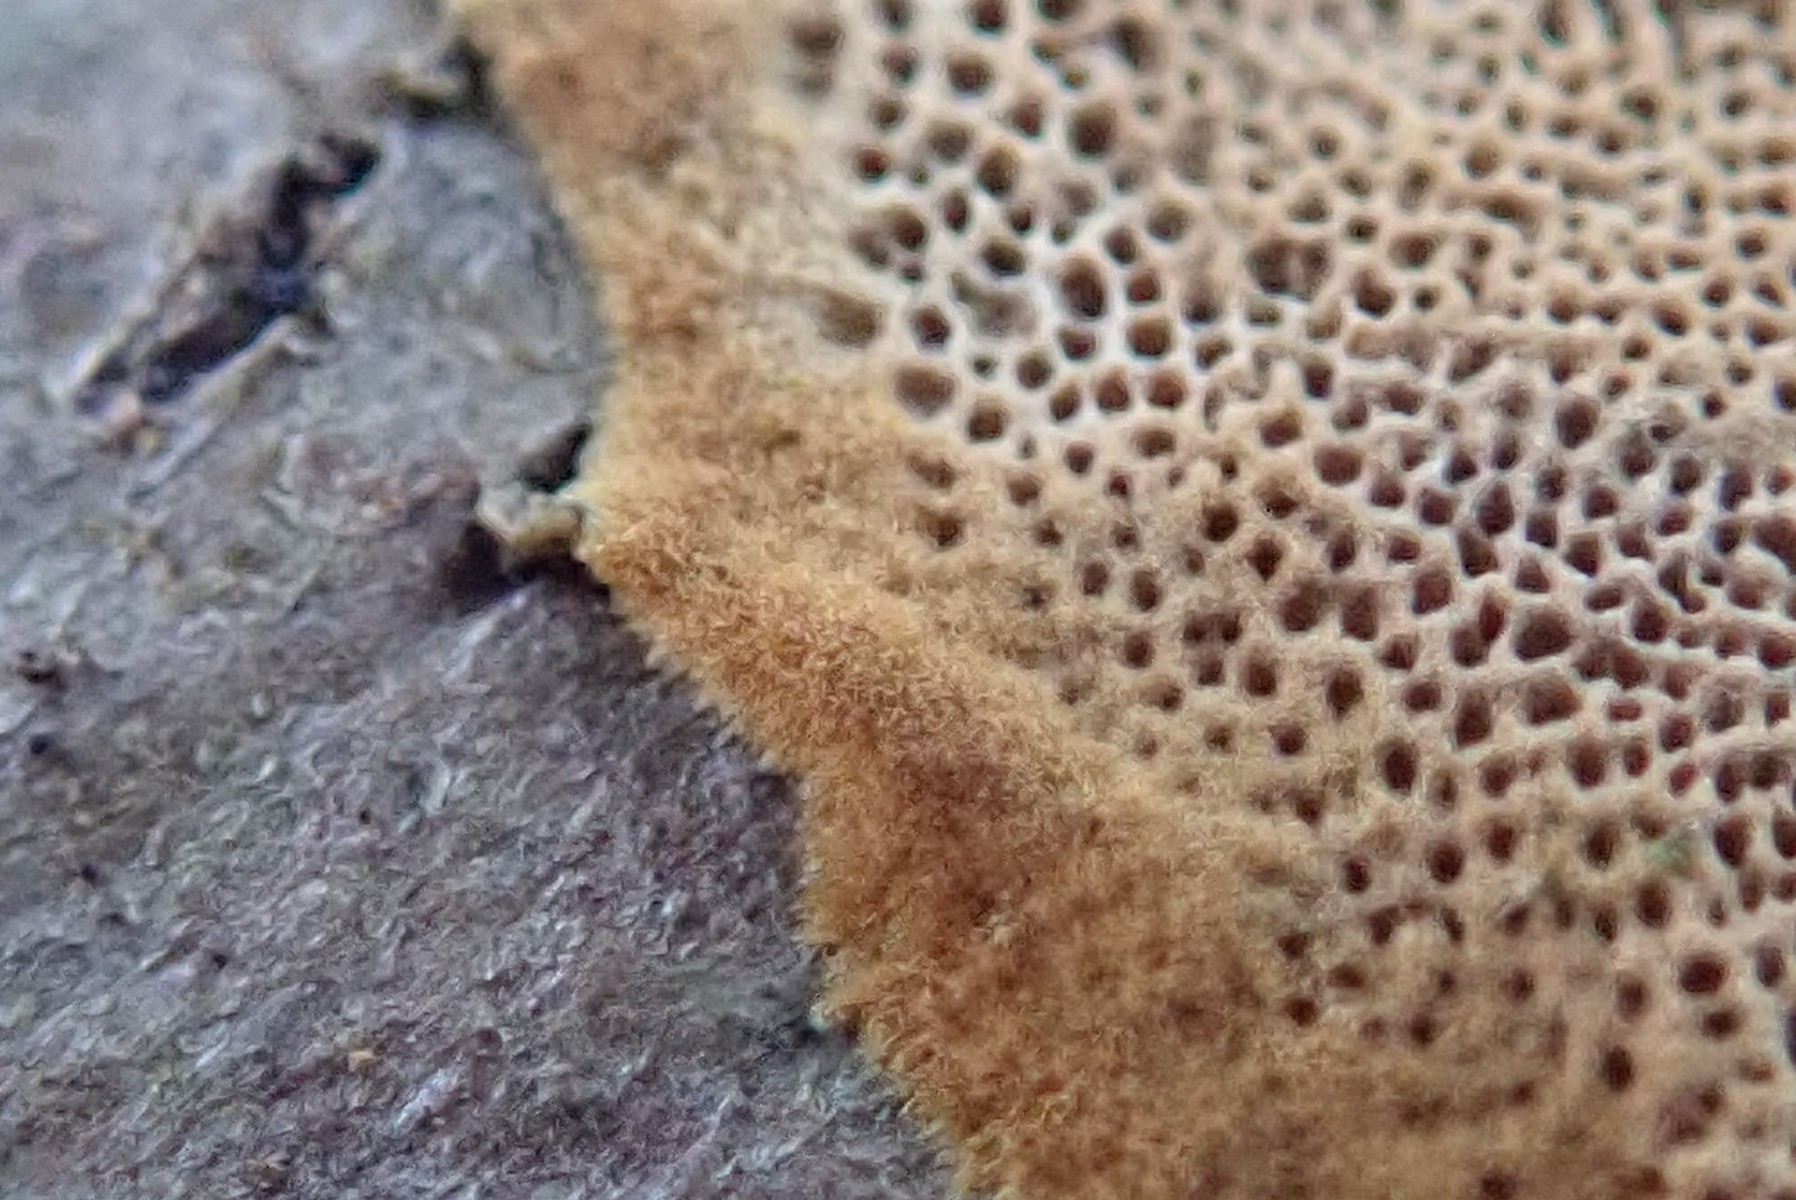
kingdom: Fungi
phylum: Basidiomycota
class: Agaricomycetes
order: Hymenochaetales
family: Hymenochaetaceae
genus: Fuscoporia
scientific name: Fuscoporia ferrea
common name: skorpe-ildporesvamp
